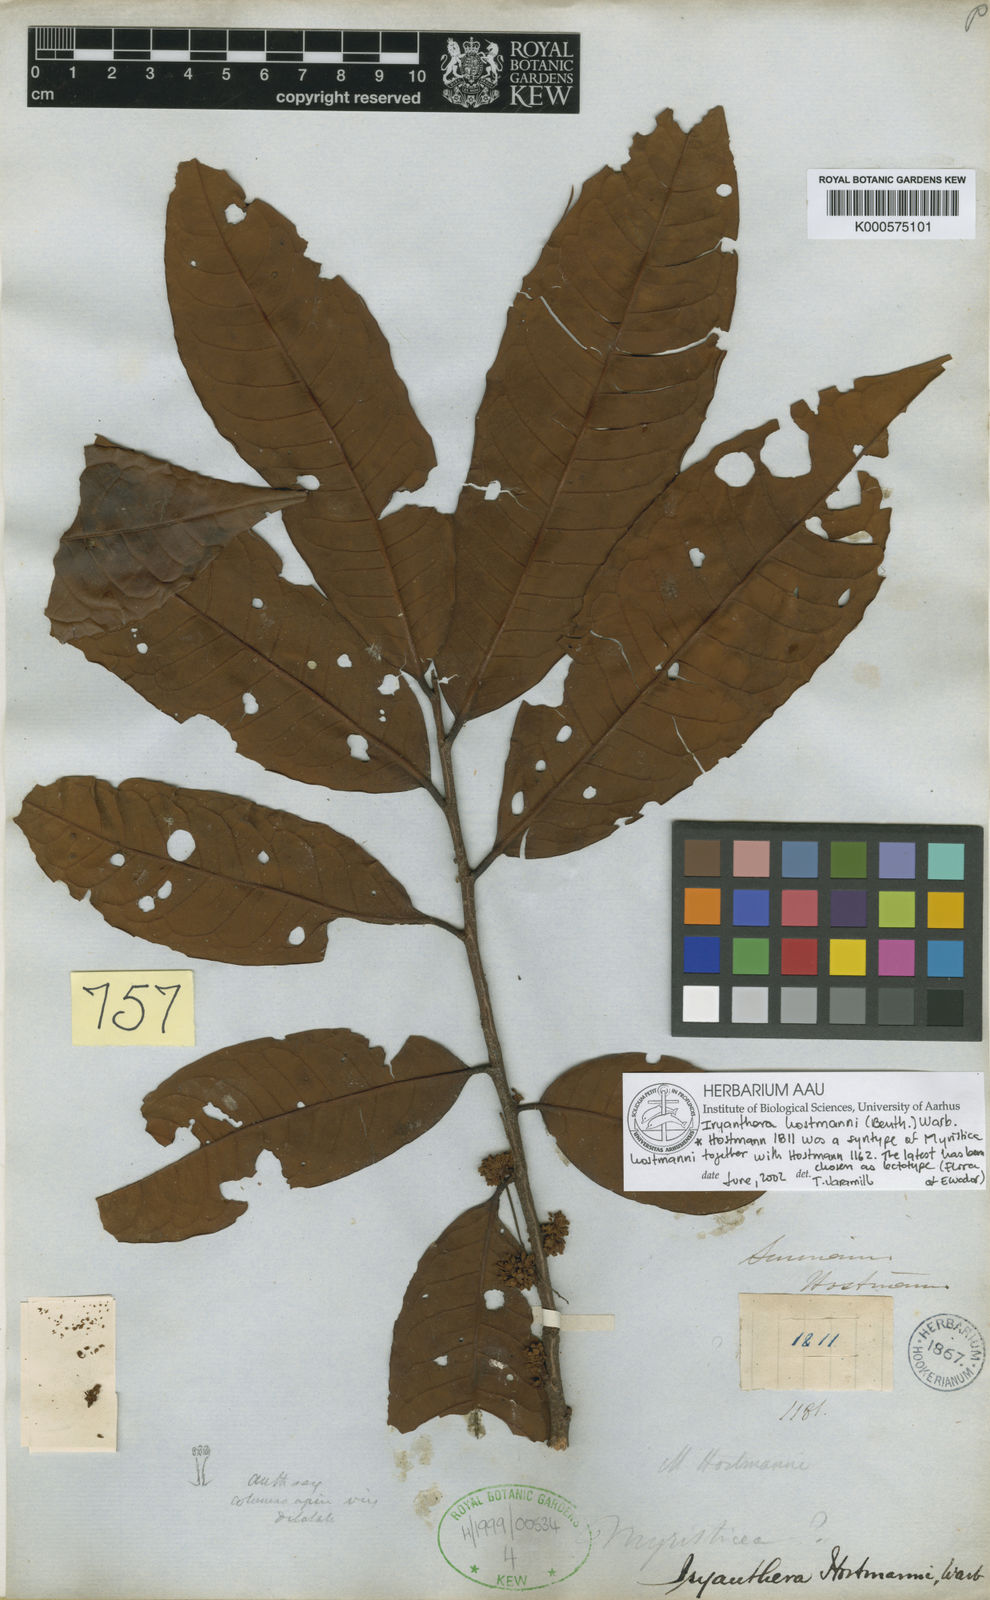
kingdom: Plantae
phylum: Tracheophyta
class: Magnoliopsida
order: Magnoliales
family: Myristicaceae
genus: Iryanthera
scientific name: Iryanthera hostmannii
